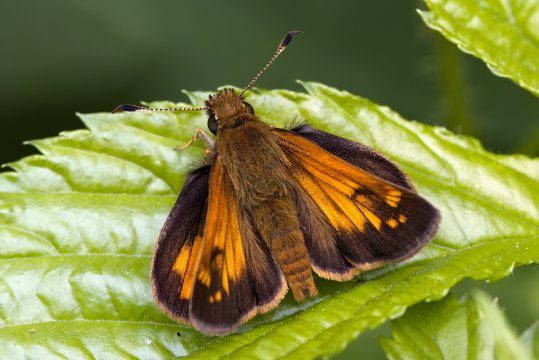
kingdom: Animalia
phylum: Arthropoda
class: Insecta
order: Lepidoptera
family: Hesperiidae
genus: Lon
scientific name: Lon hobomok
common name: Hobomok Skipper
